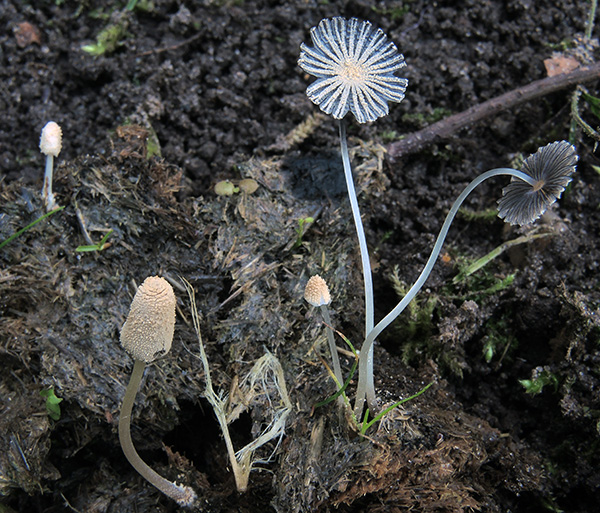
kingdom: Fungi
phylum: Basidiomycota
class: Agaricomycetes
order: Agaricales
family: Psathyrellaceae
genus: Narcissea
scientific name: Narcissea ephemeroides
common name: ring-blækhat
